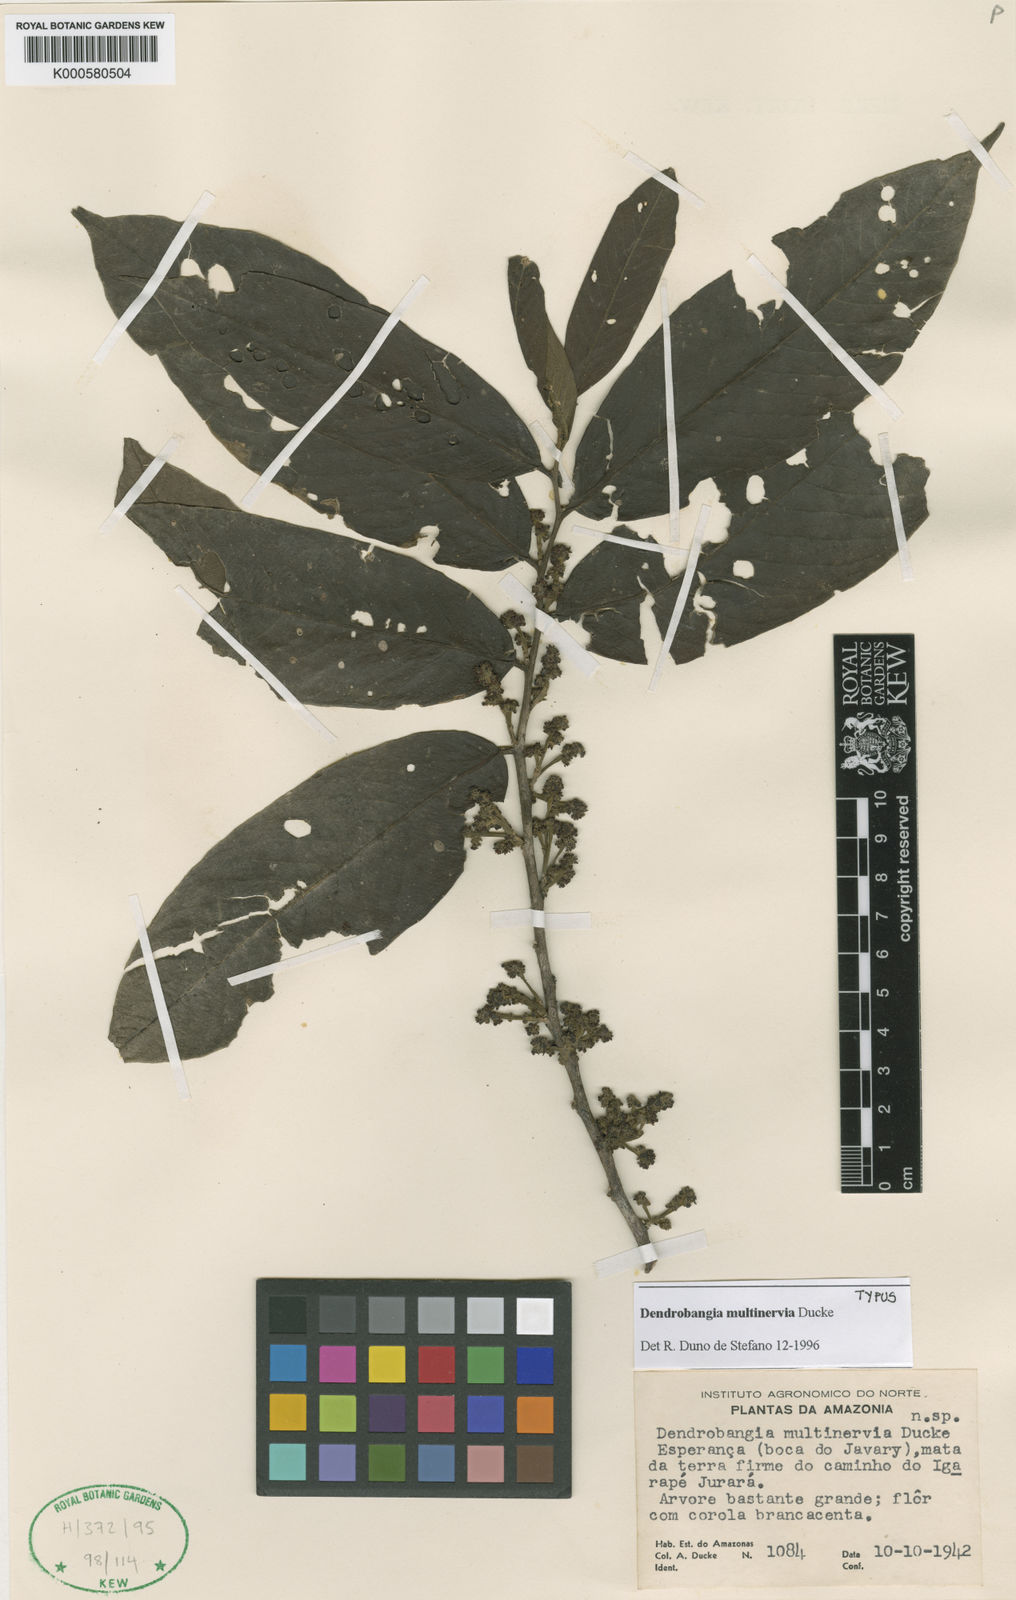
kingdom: Plantae
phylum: Tracheophyta
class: Magnoliopsida
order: Metteniusales
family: Metteniusaceae
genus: Dendrobangia
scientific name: Dendrobangia multinervia
